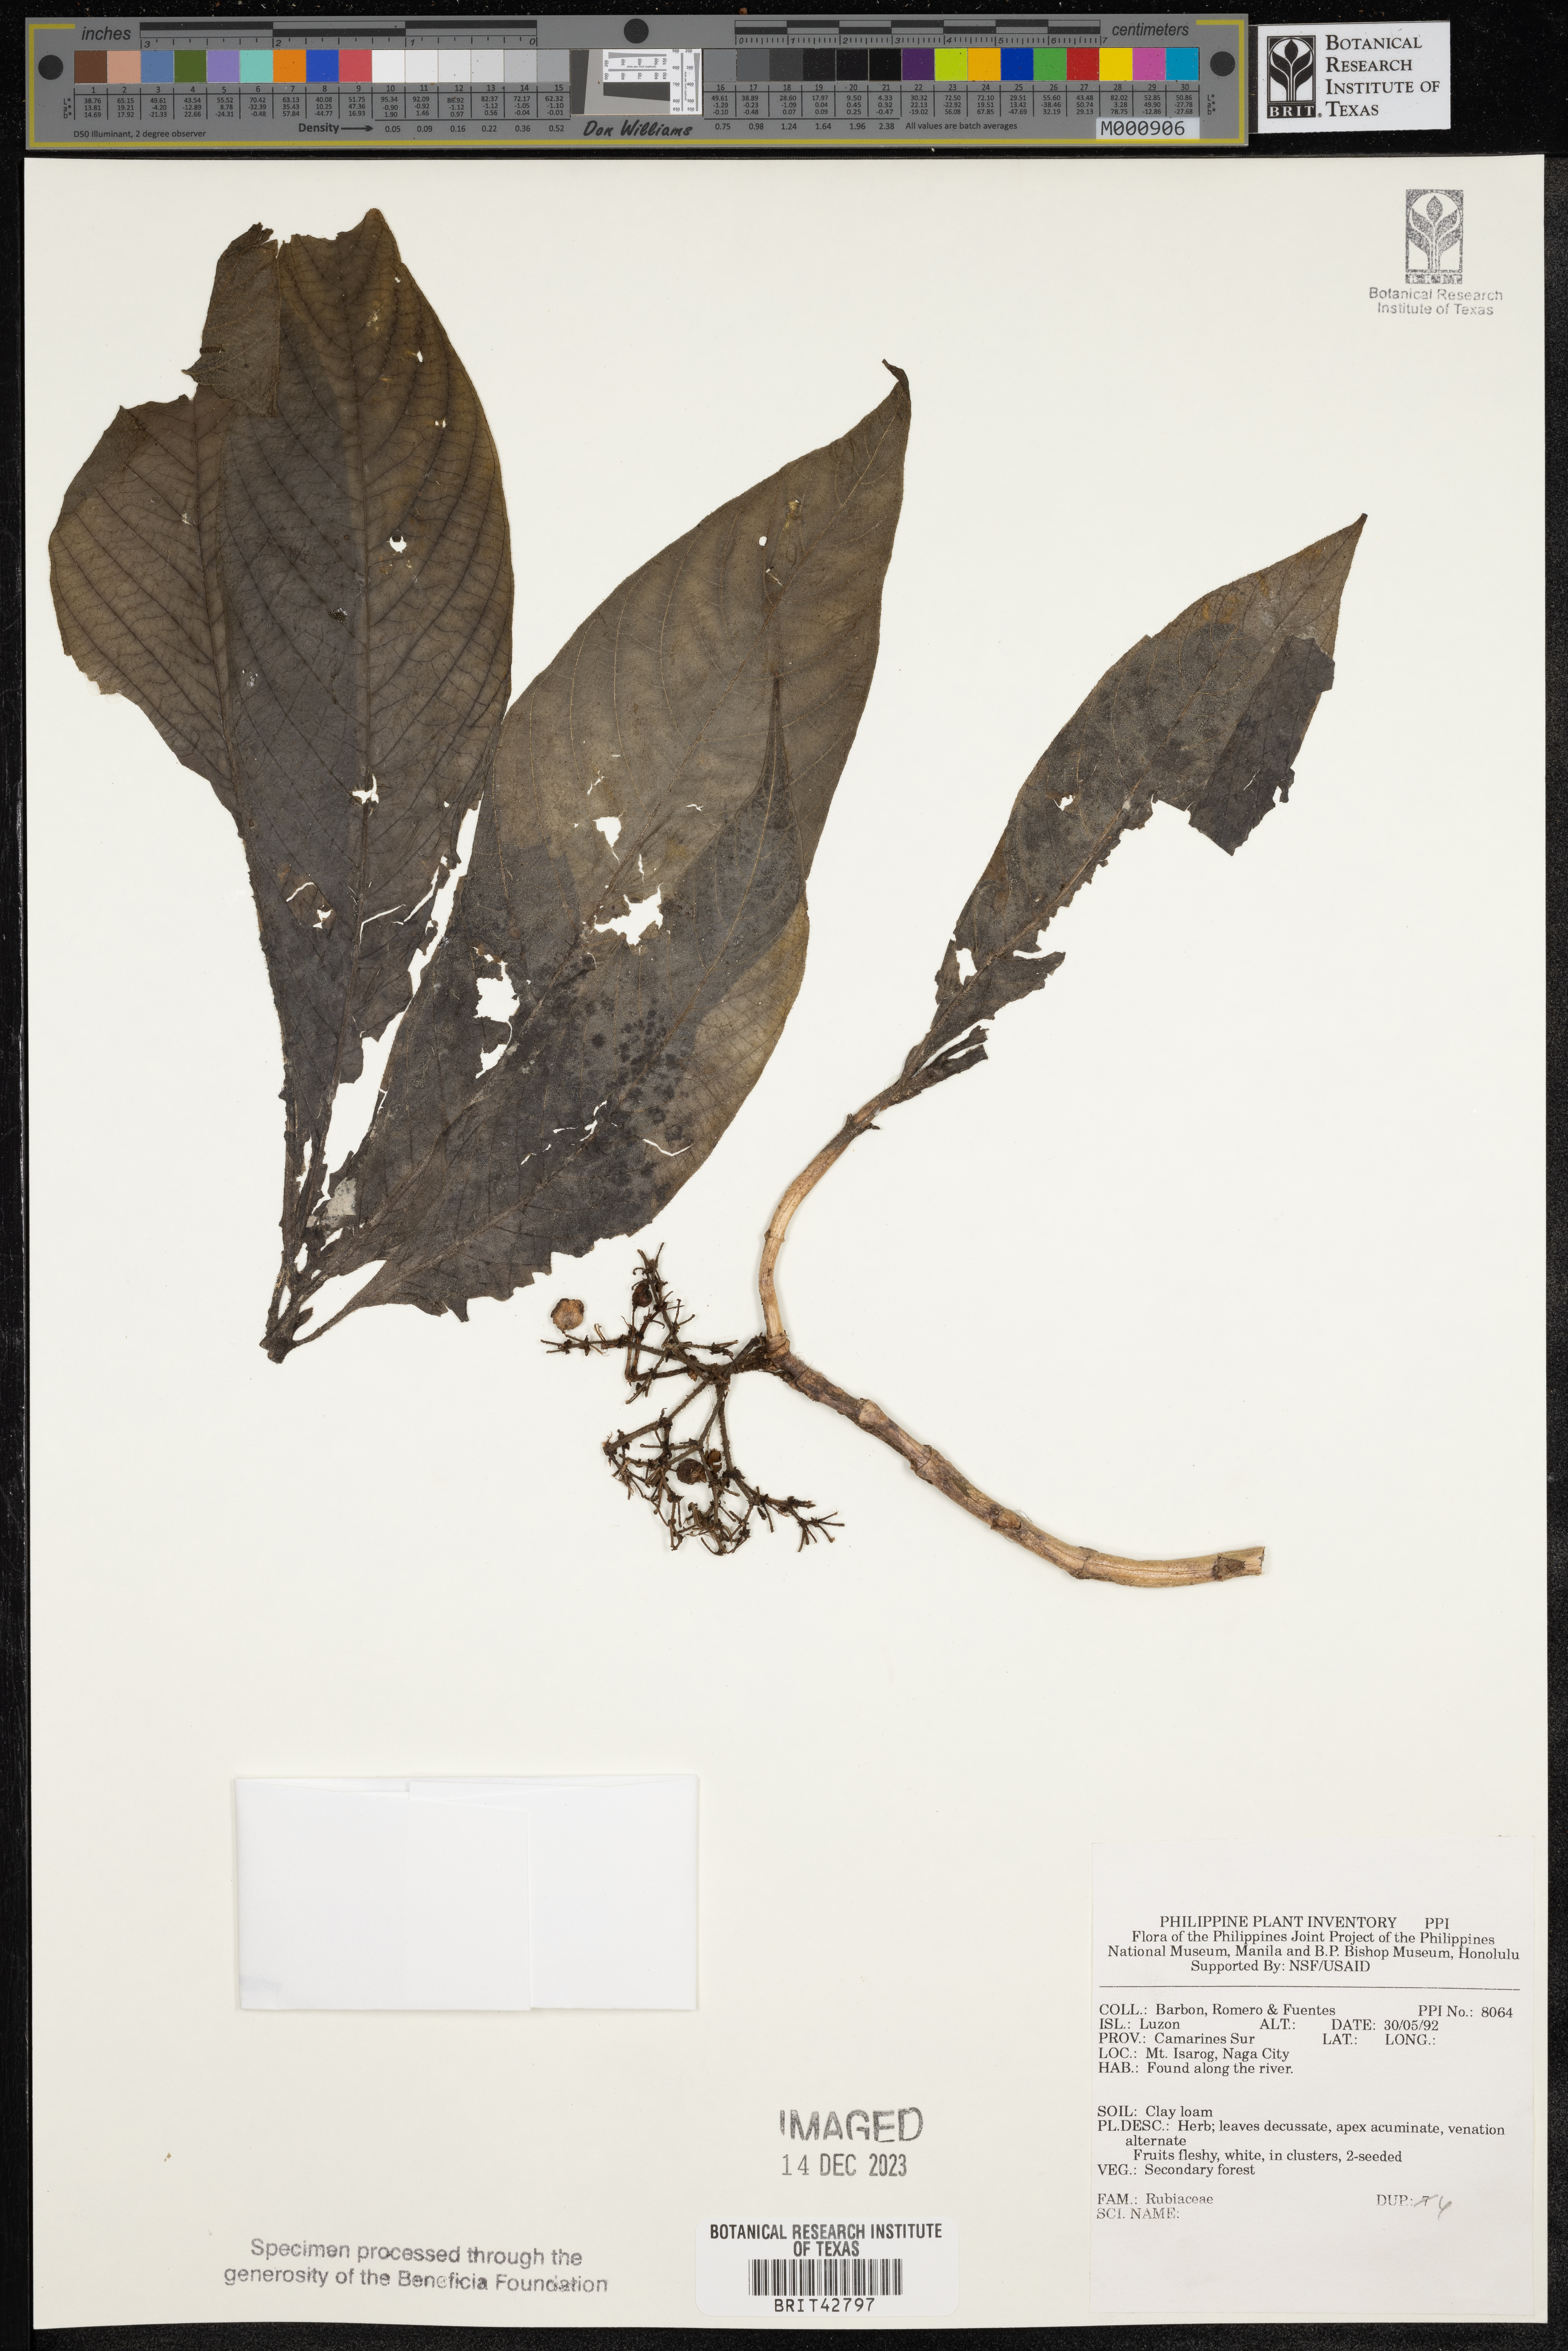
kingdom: Plantae
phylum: Tracheophyta
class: Magnoliopsida
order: Gentianales
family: Rubiaceae
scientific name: Rubiaceae
